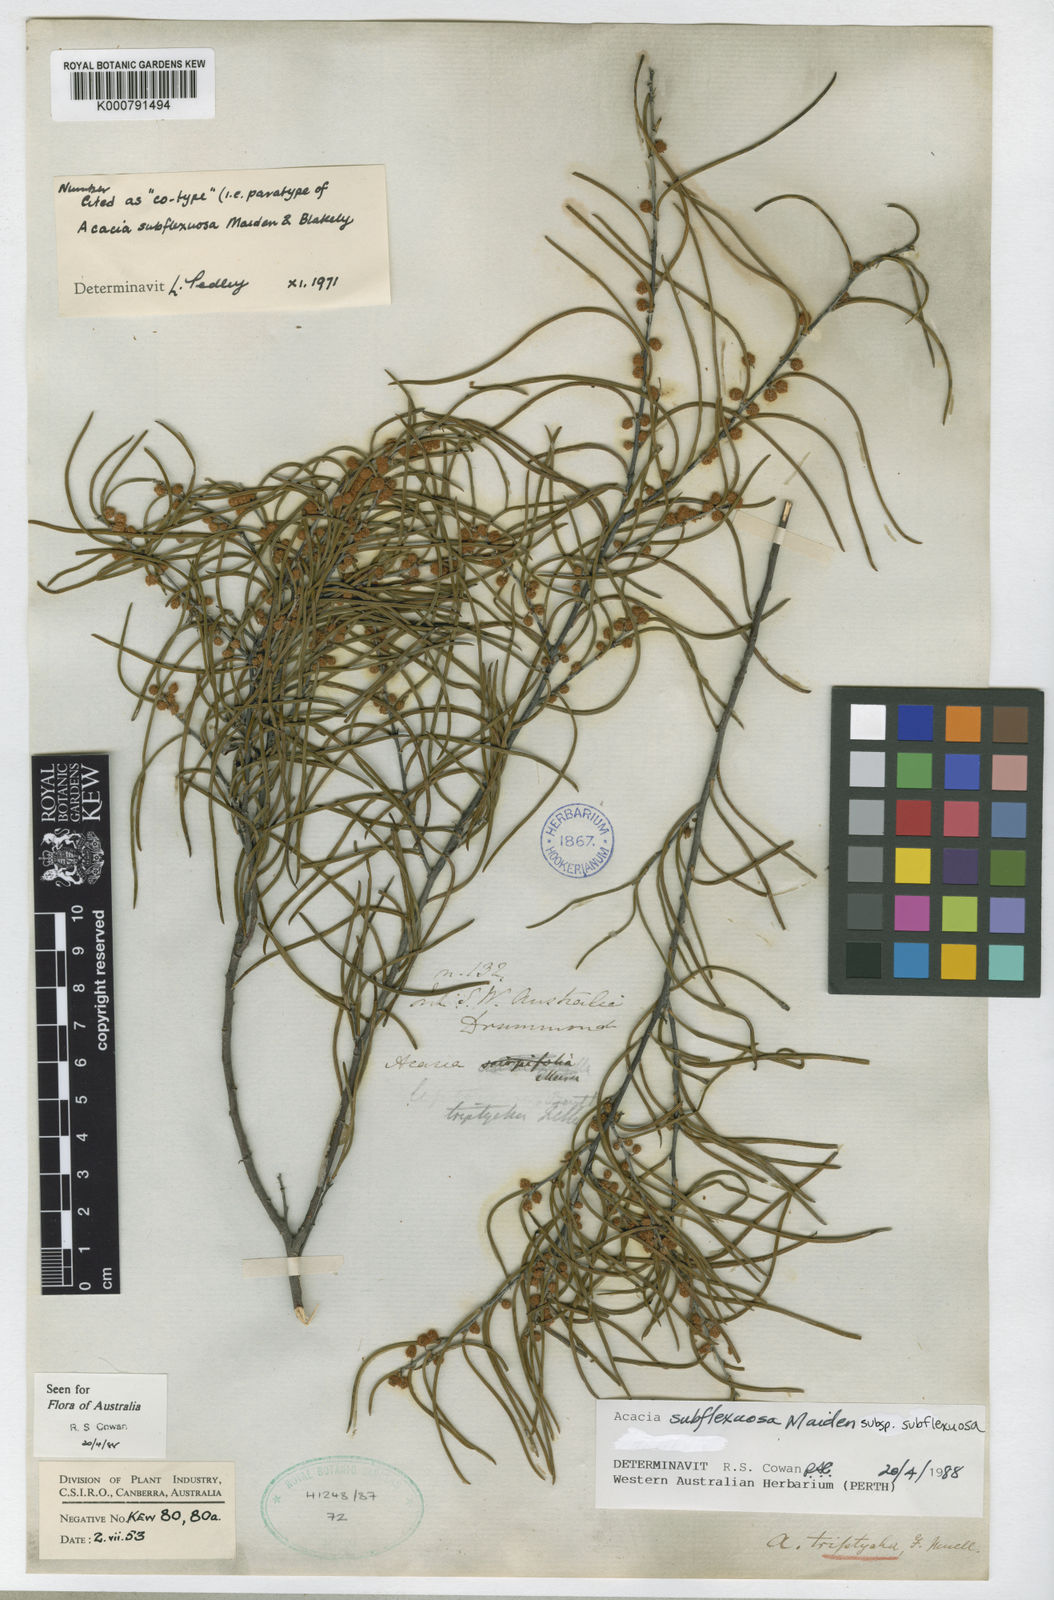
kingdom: Plantae
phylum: Tracheophyta
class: Magnoliopsida
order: Fabales
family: Fabaceae
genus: Acacia
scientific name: Acacia triptycha
